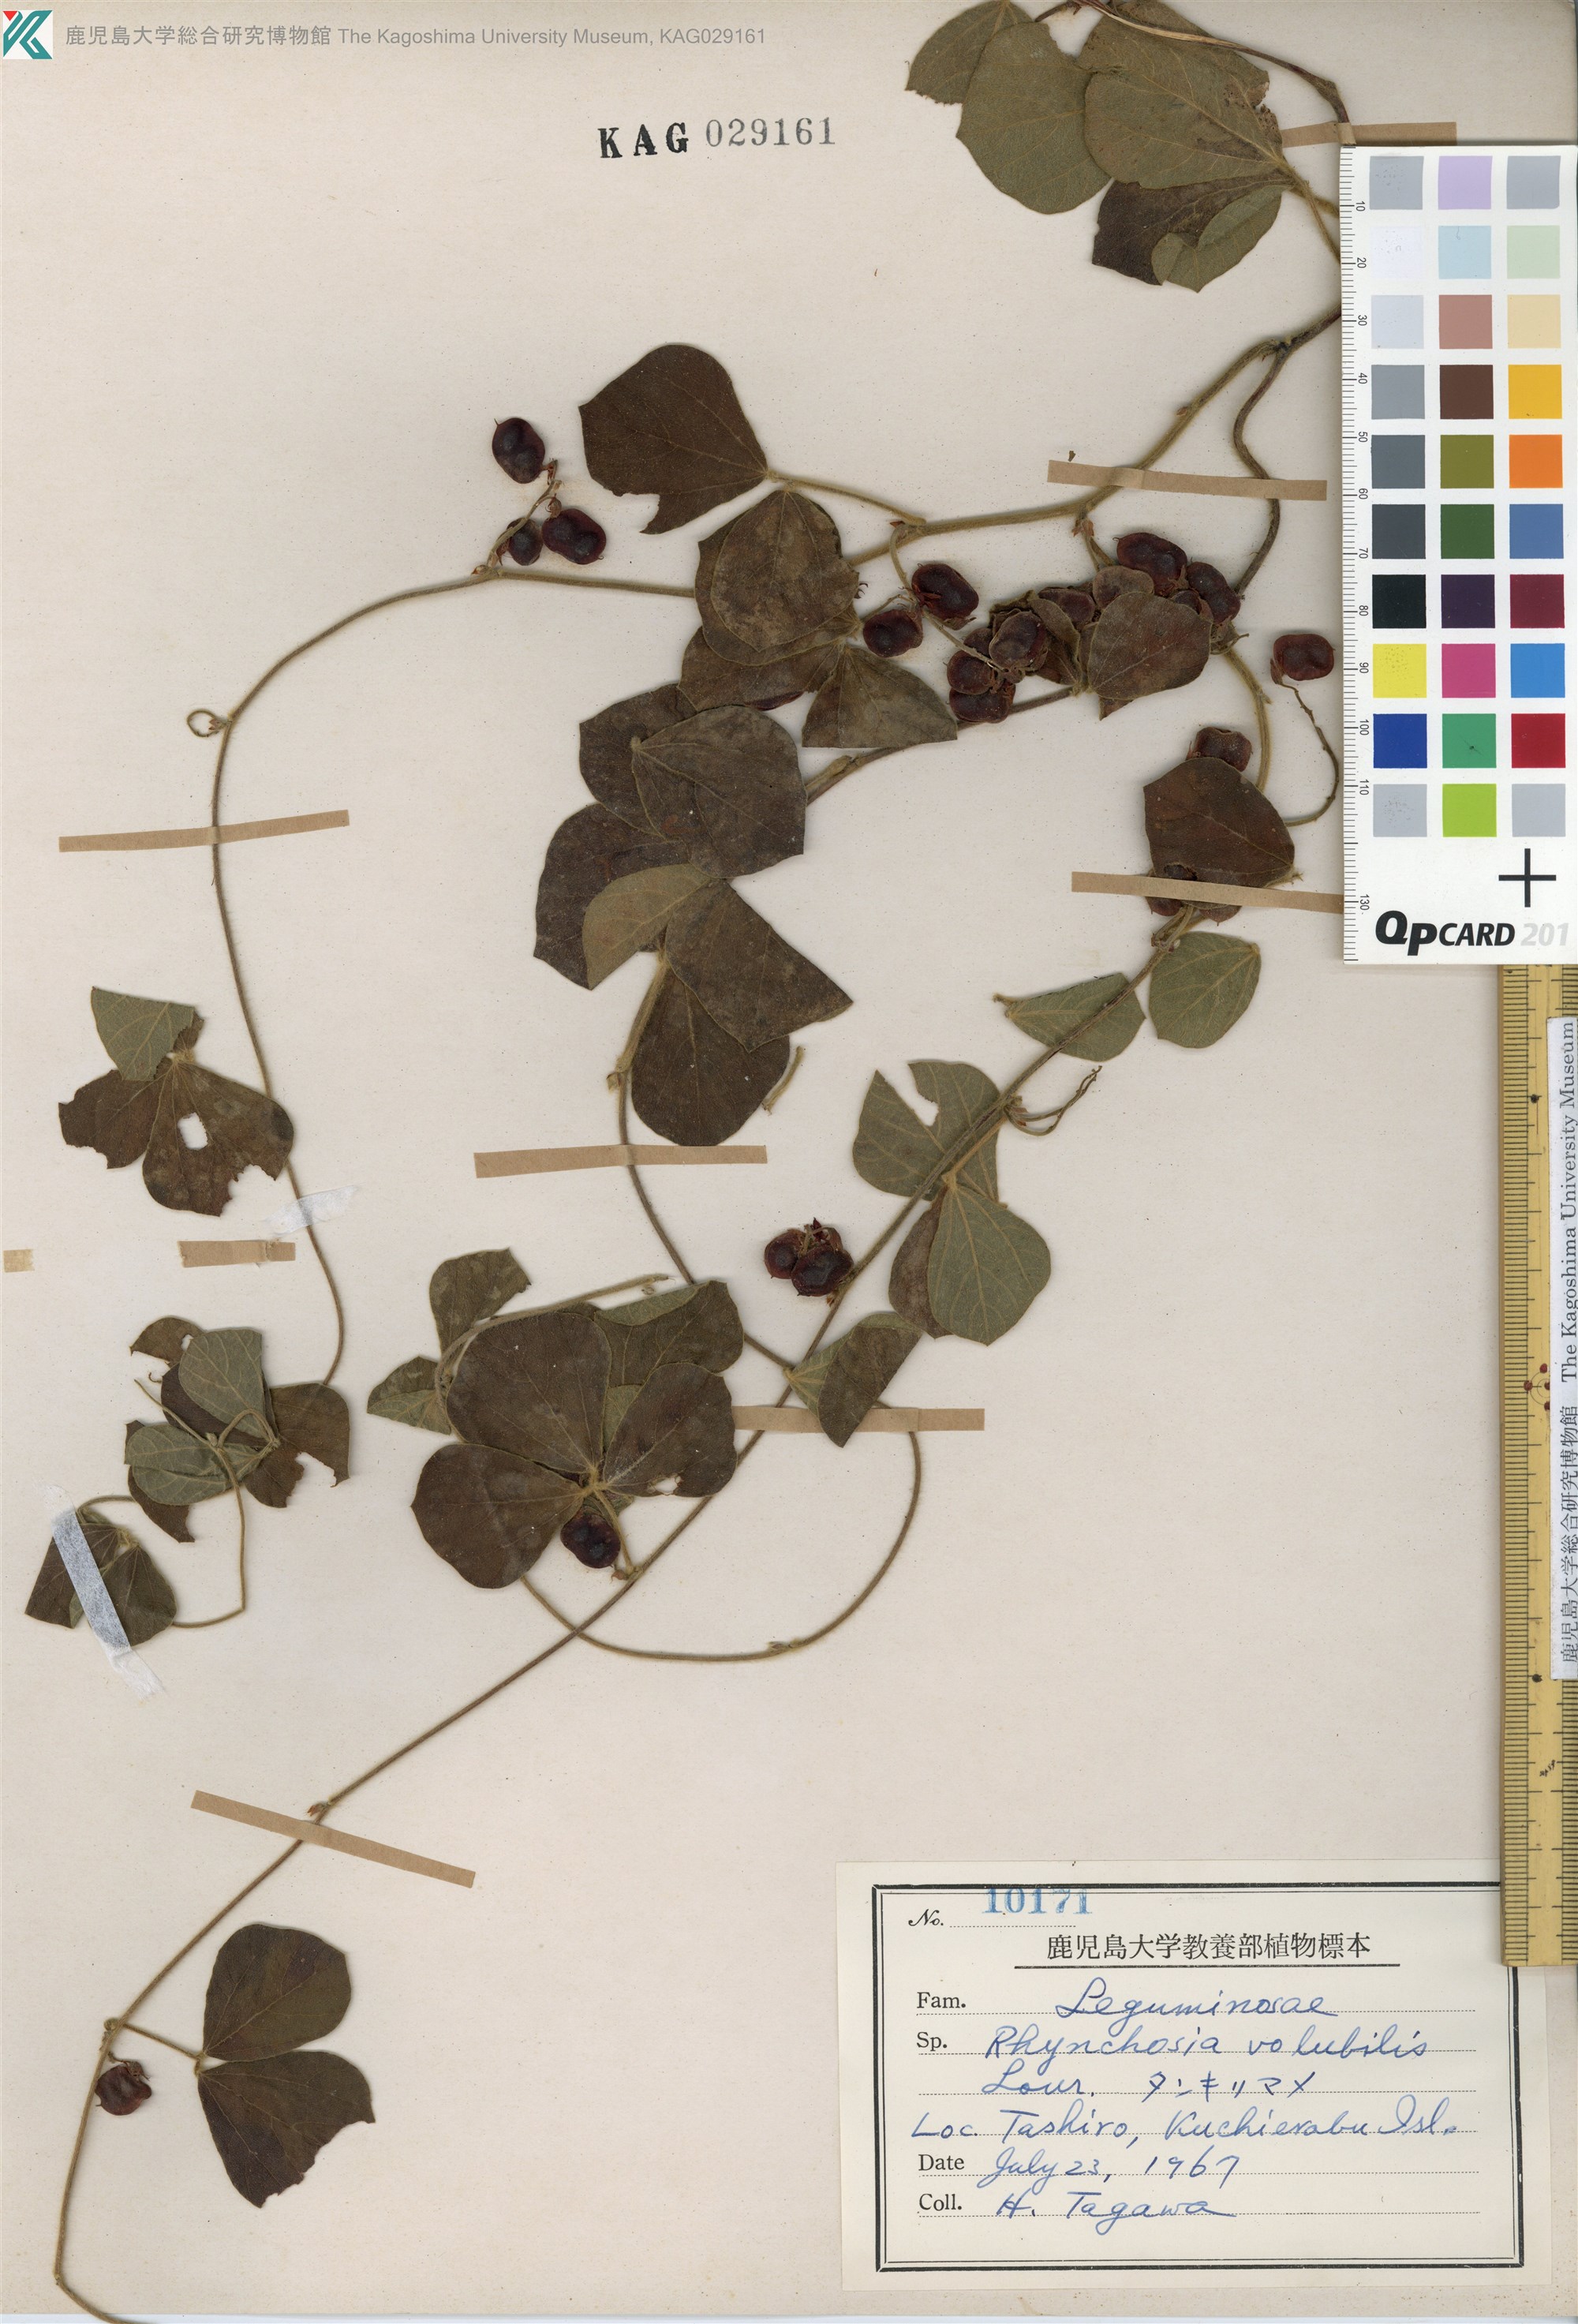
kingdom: Plantae
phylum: Tracheophyta
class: Magnoliopsida
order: Fabales
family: Fabaceae
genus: Rhynchosia
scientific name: Rhynchosia volubilis
